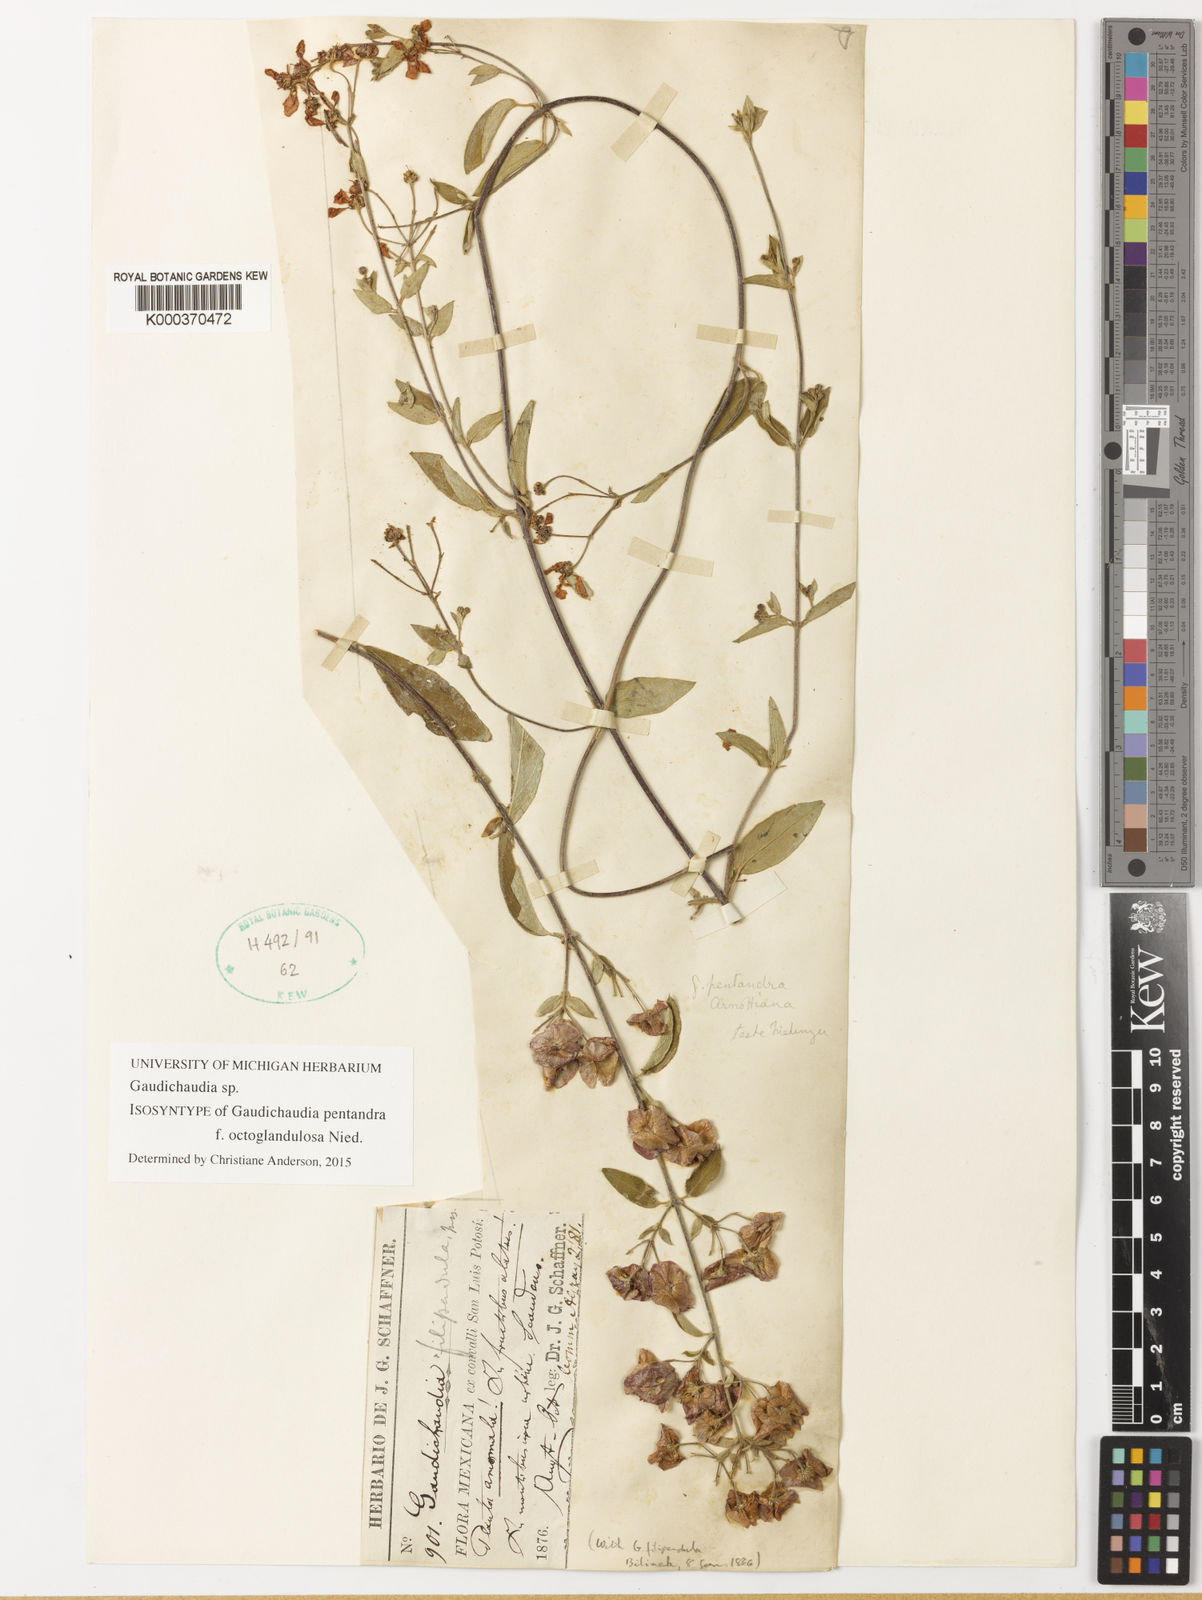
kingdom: Plantae
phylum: Tracheophyta
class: Magnoliopsida
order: Malpighiales
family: Malpighiaceae
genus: Gaudichaudia
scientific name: Gaudichaudia cycloptera
